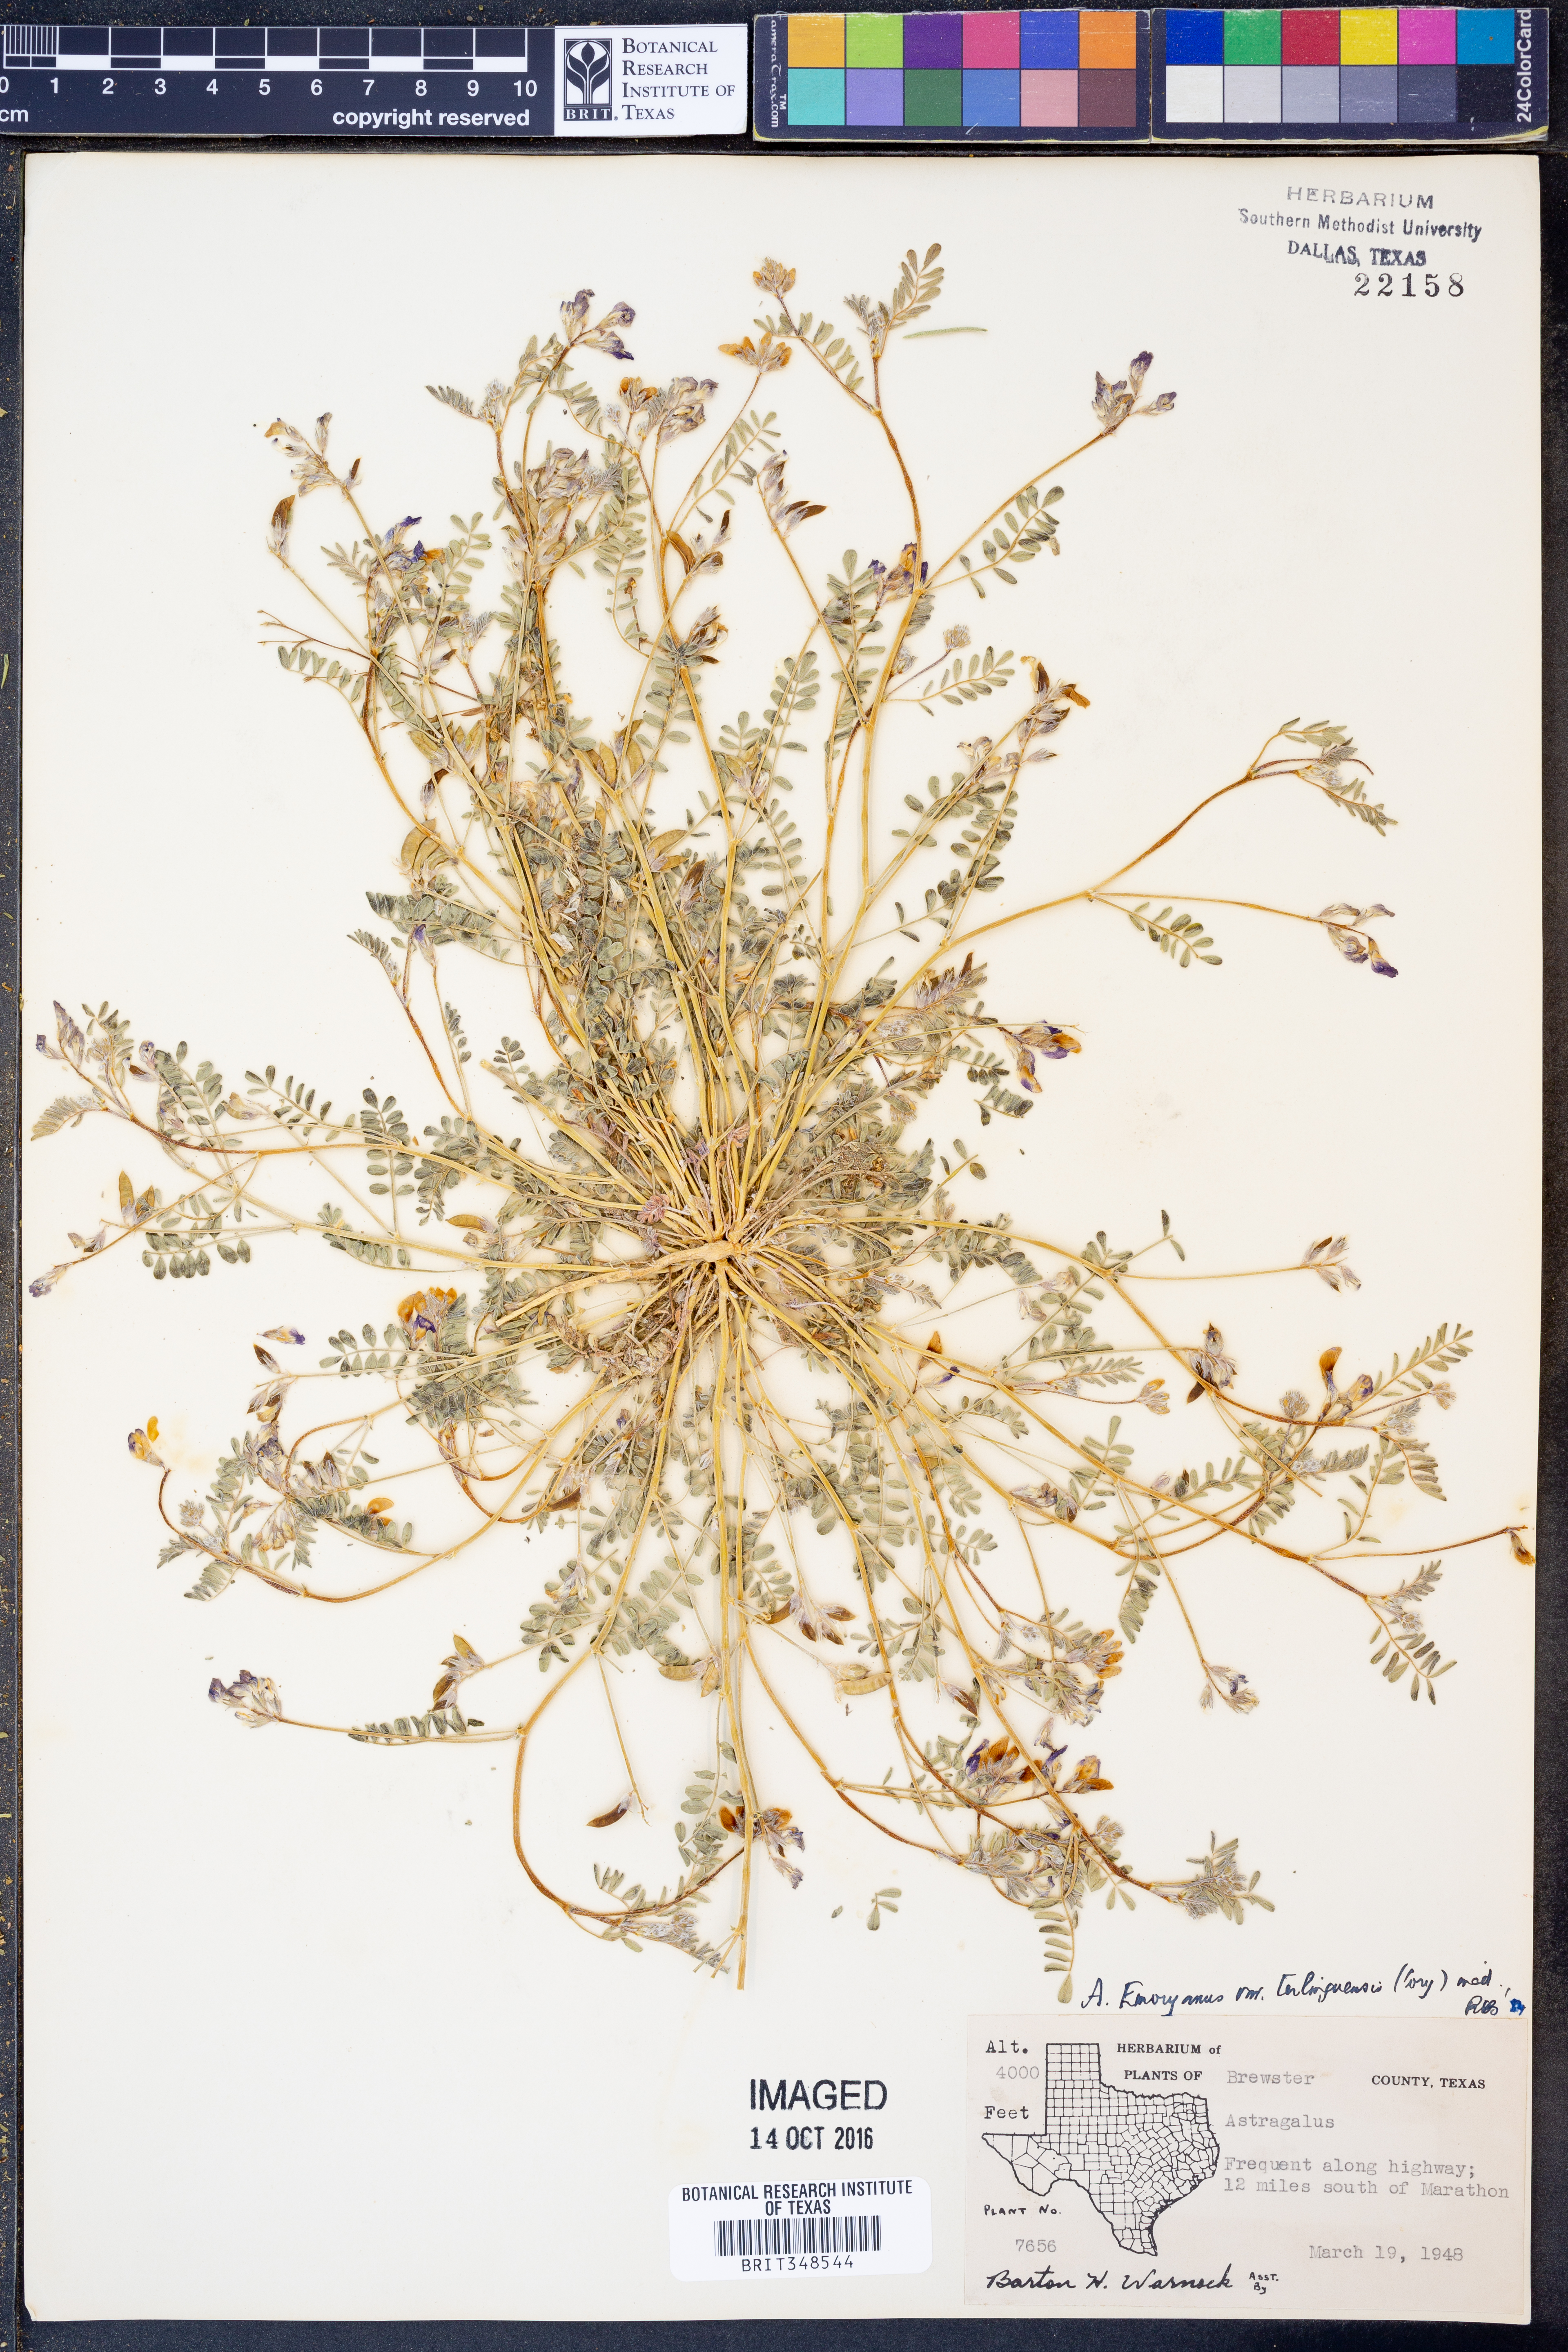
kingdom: Plantae
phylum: Tracheophyta
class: Magnoliopsida
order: Fabales
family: Fabaceae
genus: Astragalus
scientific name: Astragalus emoryanus
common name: Emory's milk-vetch
